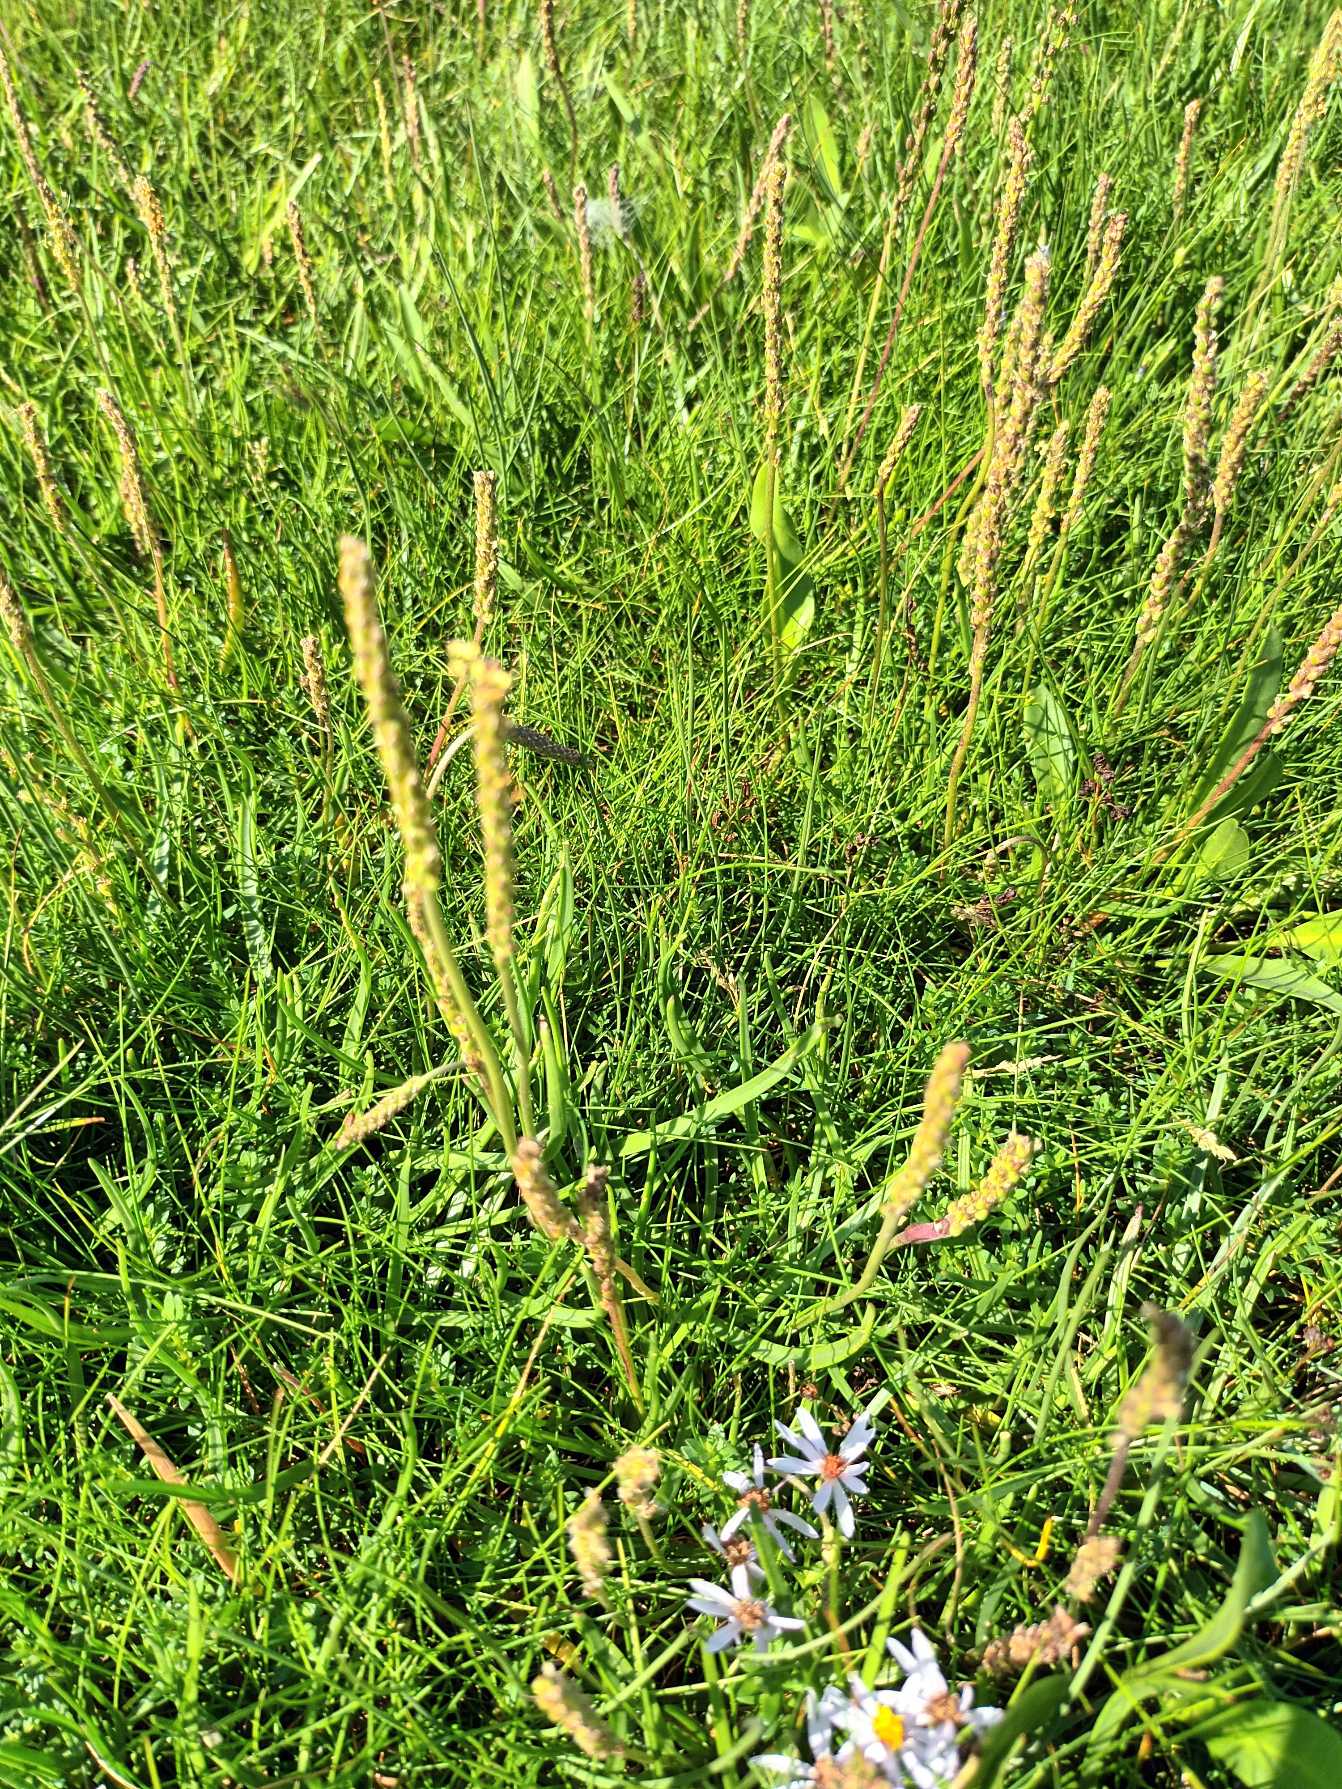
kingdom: Plantae
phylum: Tracheophyta
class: Magnoliopsida
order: Lamiales
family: Plantaginaceae
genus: Plantago
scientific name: Plantago maritima
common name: Strand-vejbred
